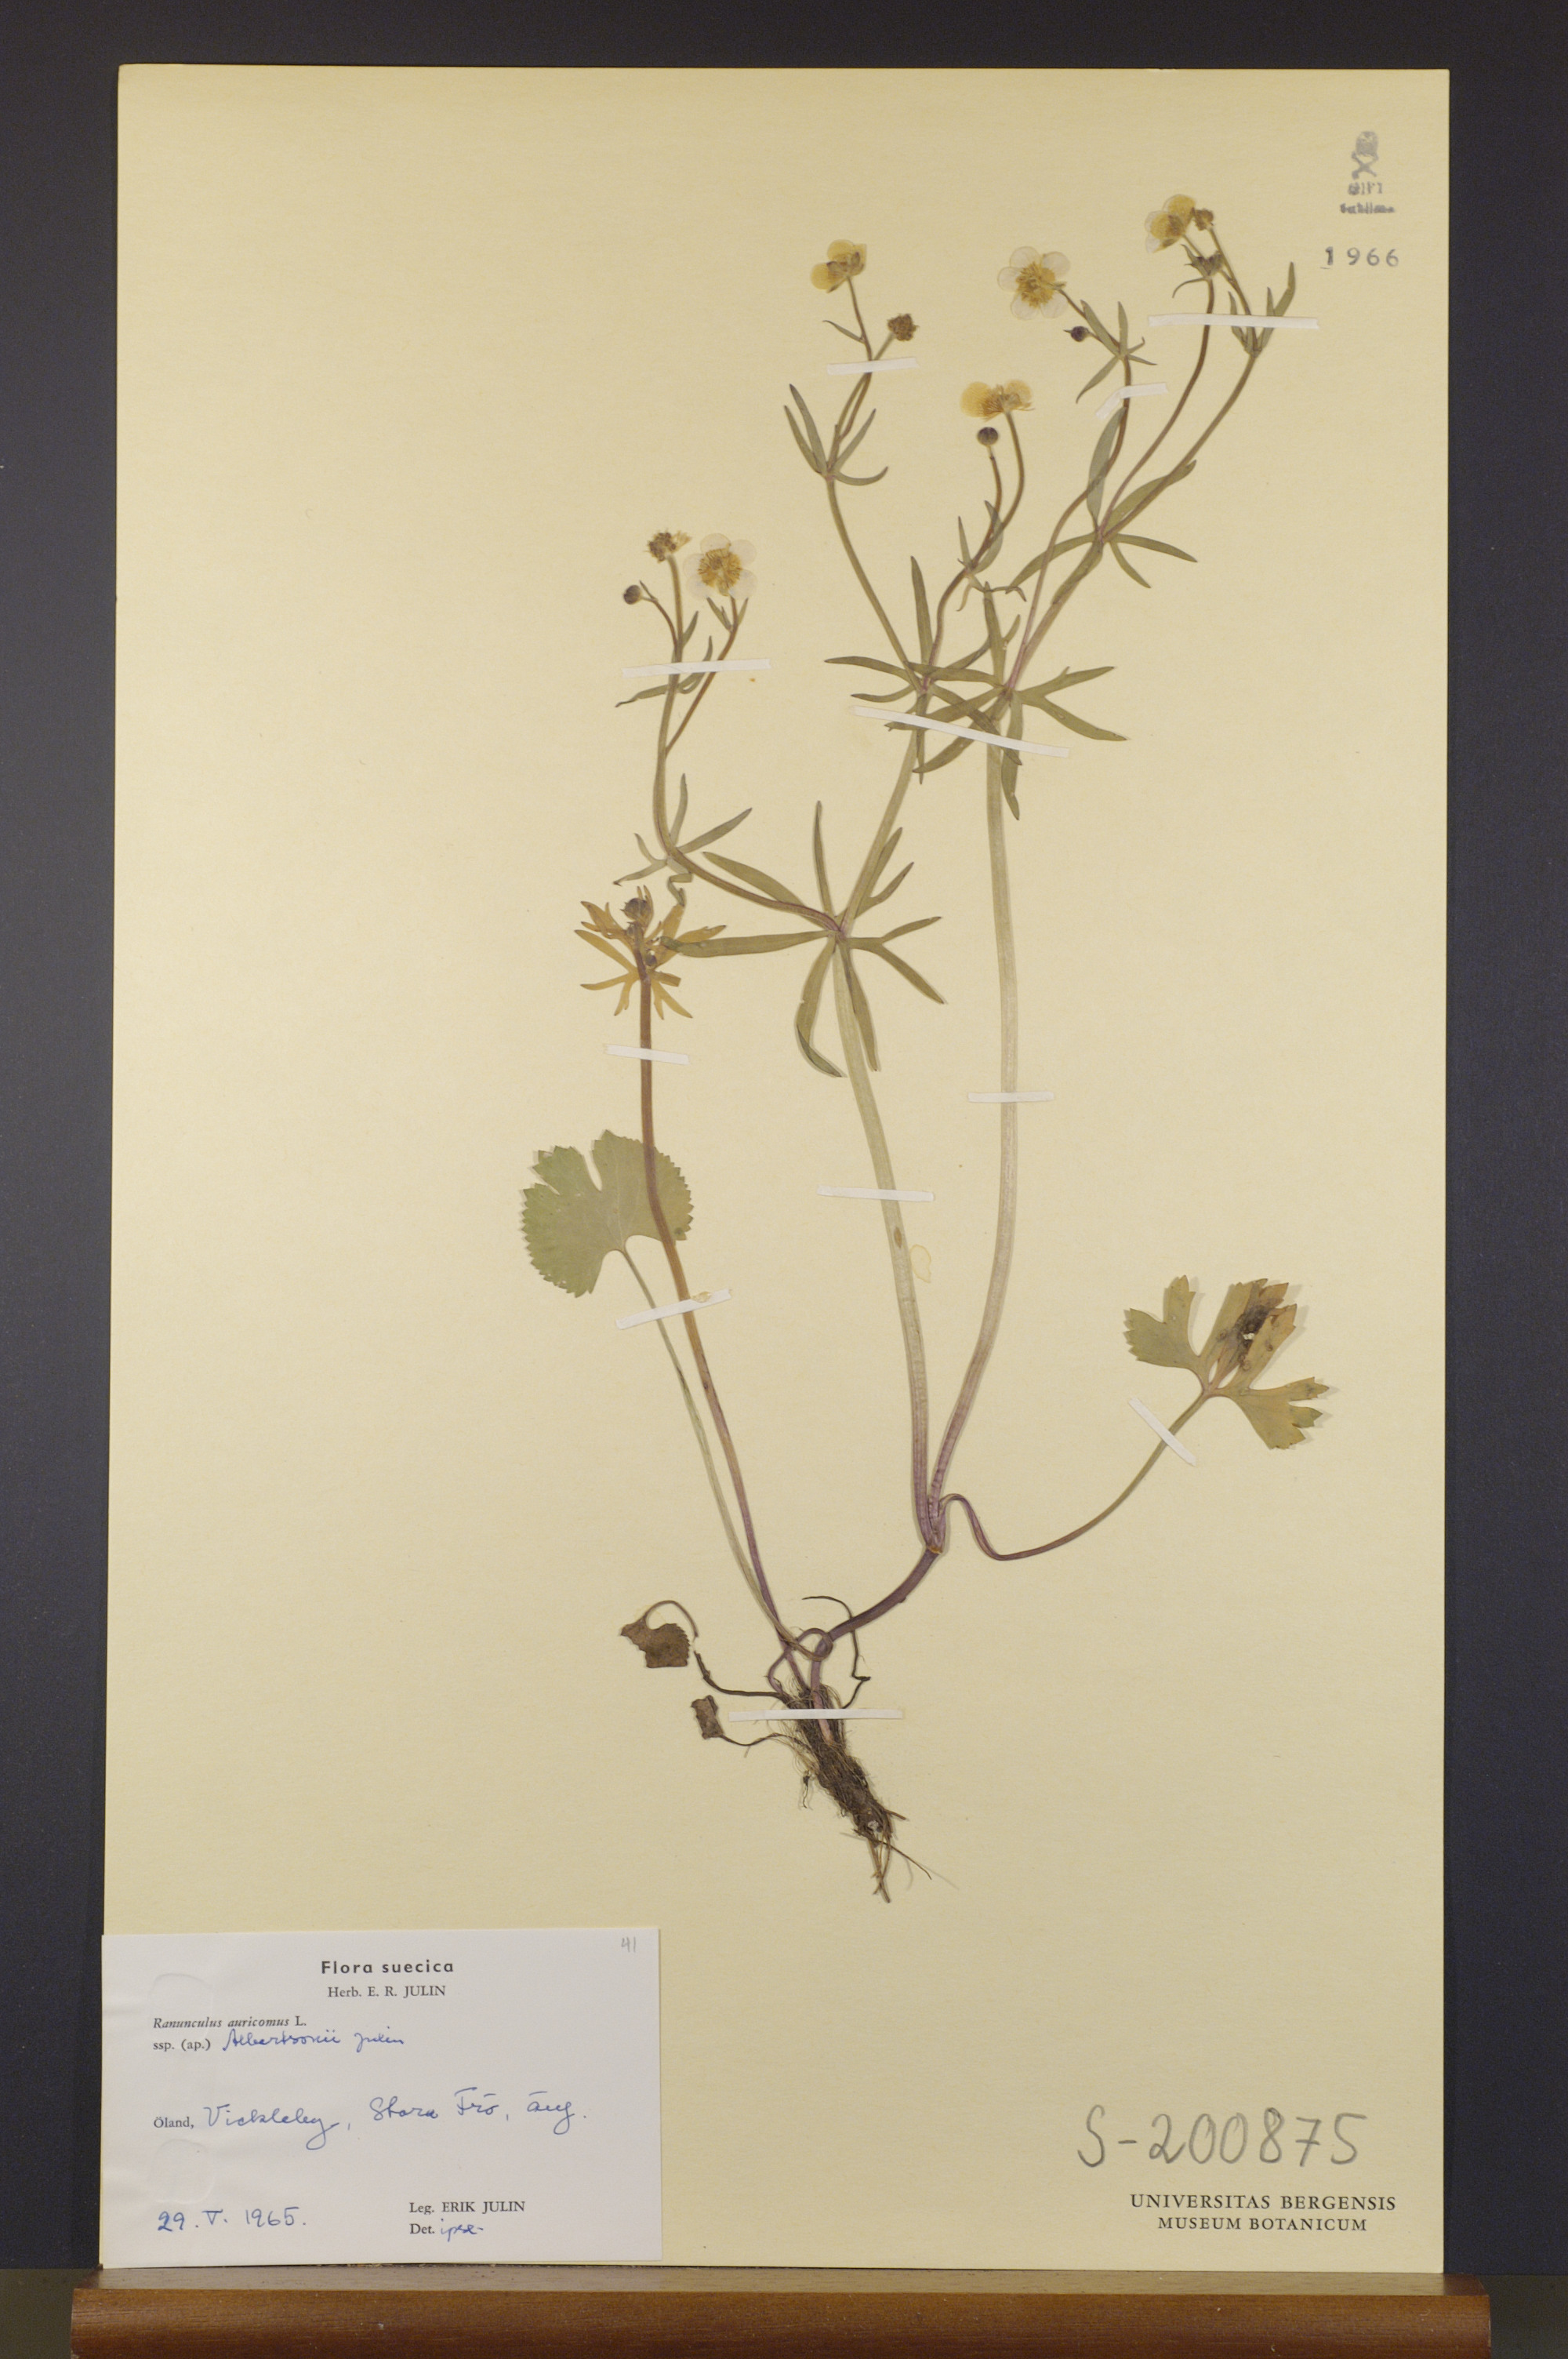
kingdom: Plantae
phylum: Tracheophyta
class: Magnoliopsida
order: Ranunculales
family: Ranunculaceae
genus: Ranunculus
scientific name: Ranunculus albertsonii
